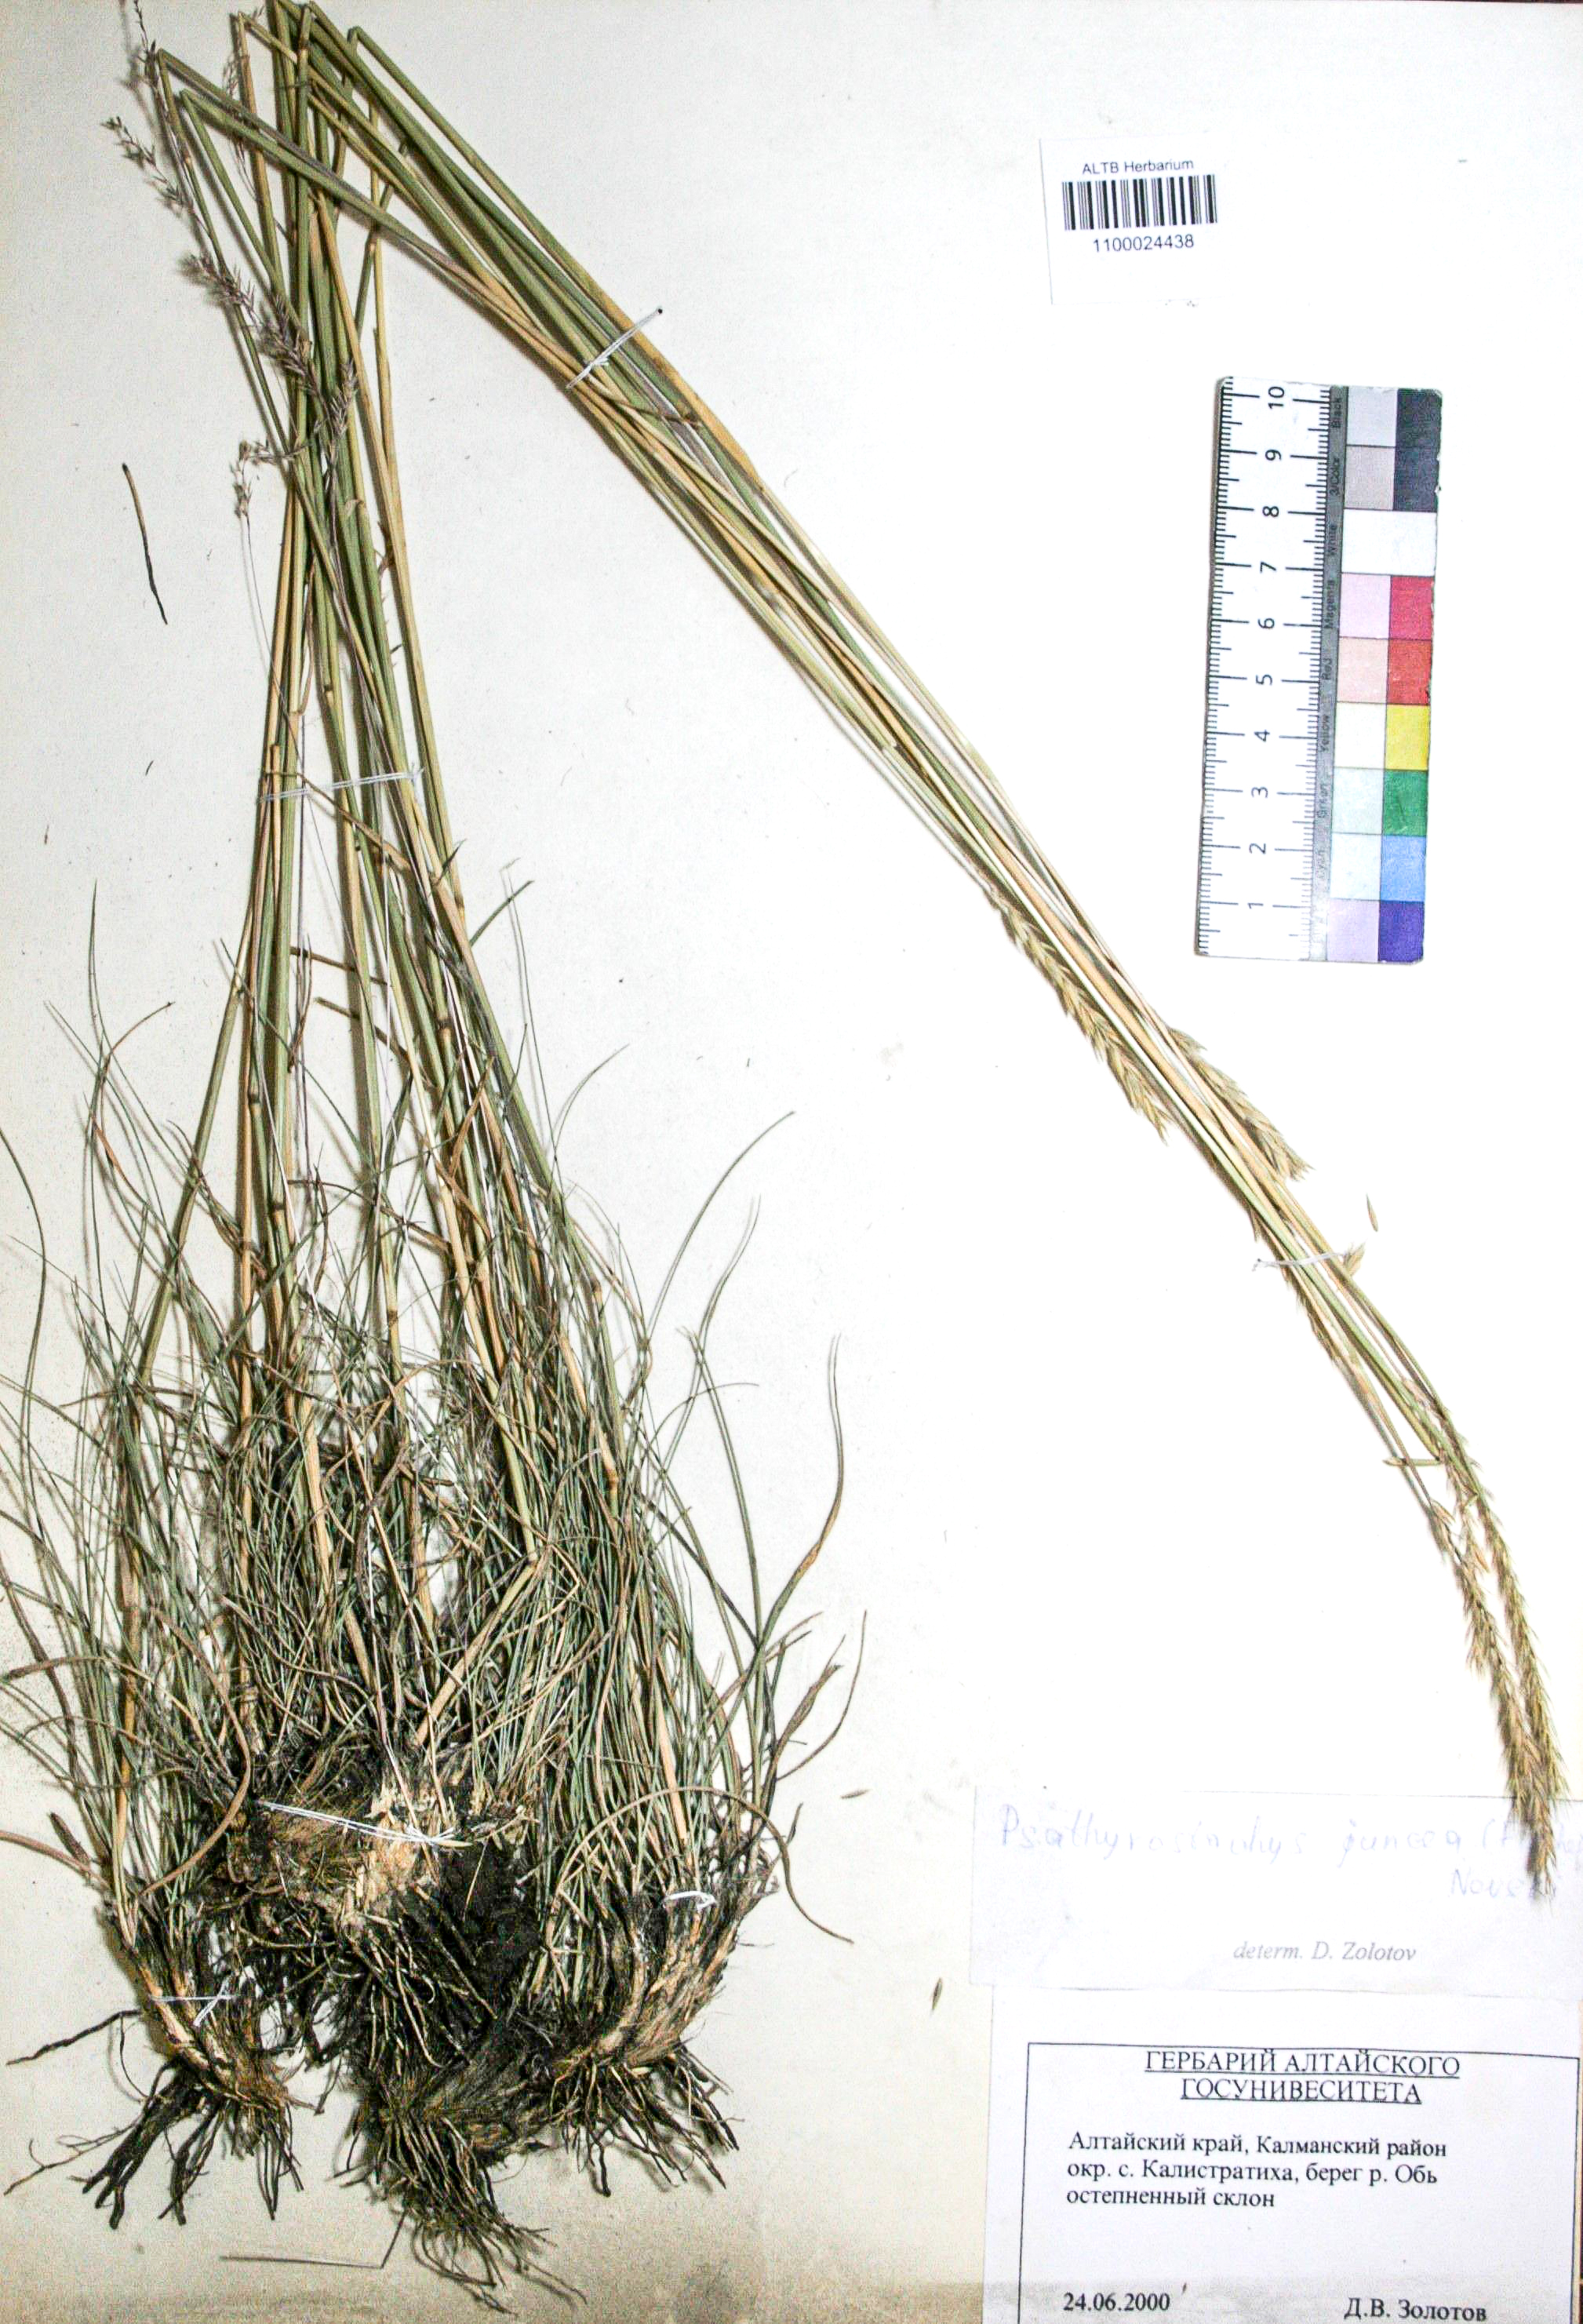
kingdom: Plantae
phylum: Tracheophyta
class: Liliopsida
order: Poales
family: Poaceae
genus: Psathyrostachys
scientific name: Psathyrostachys juncea
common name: Russian wildrye
